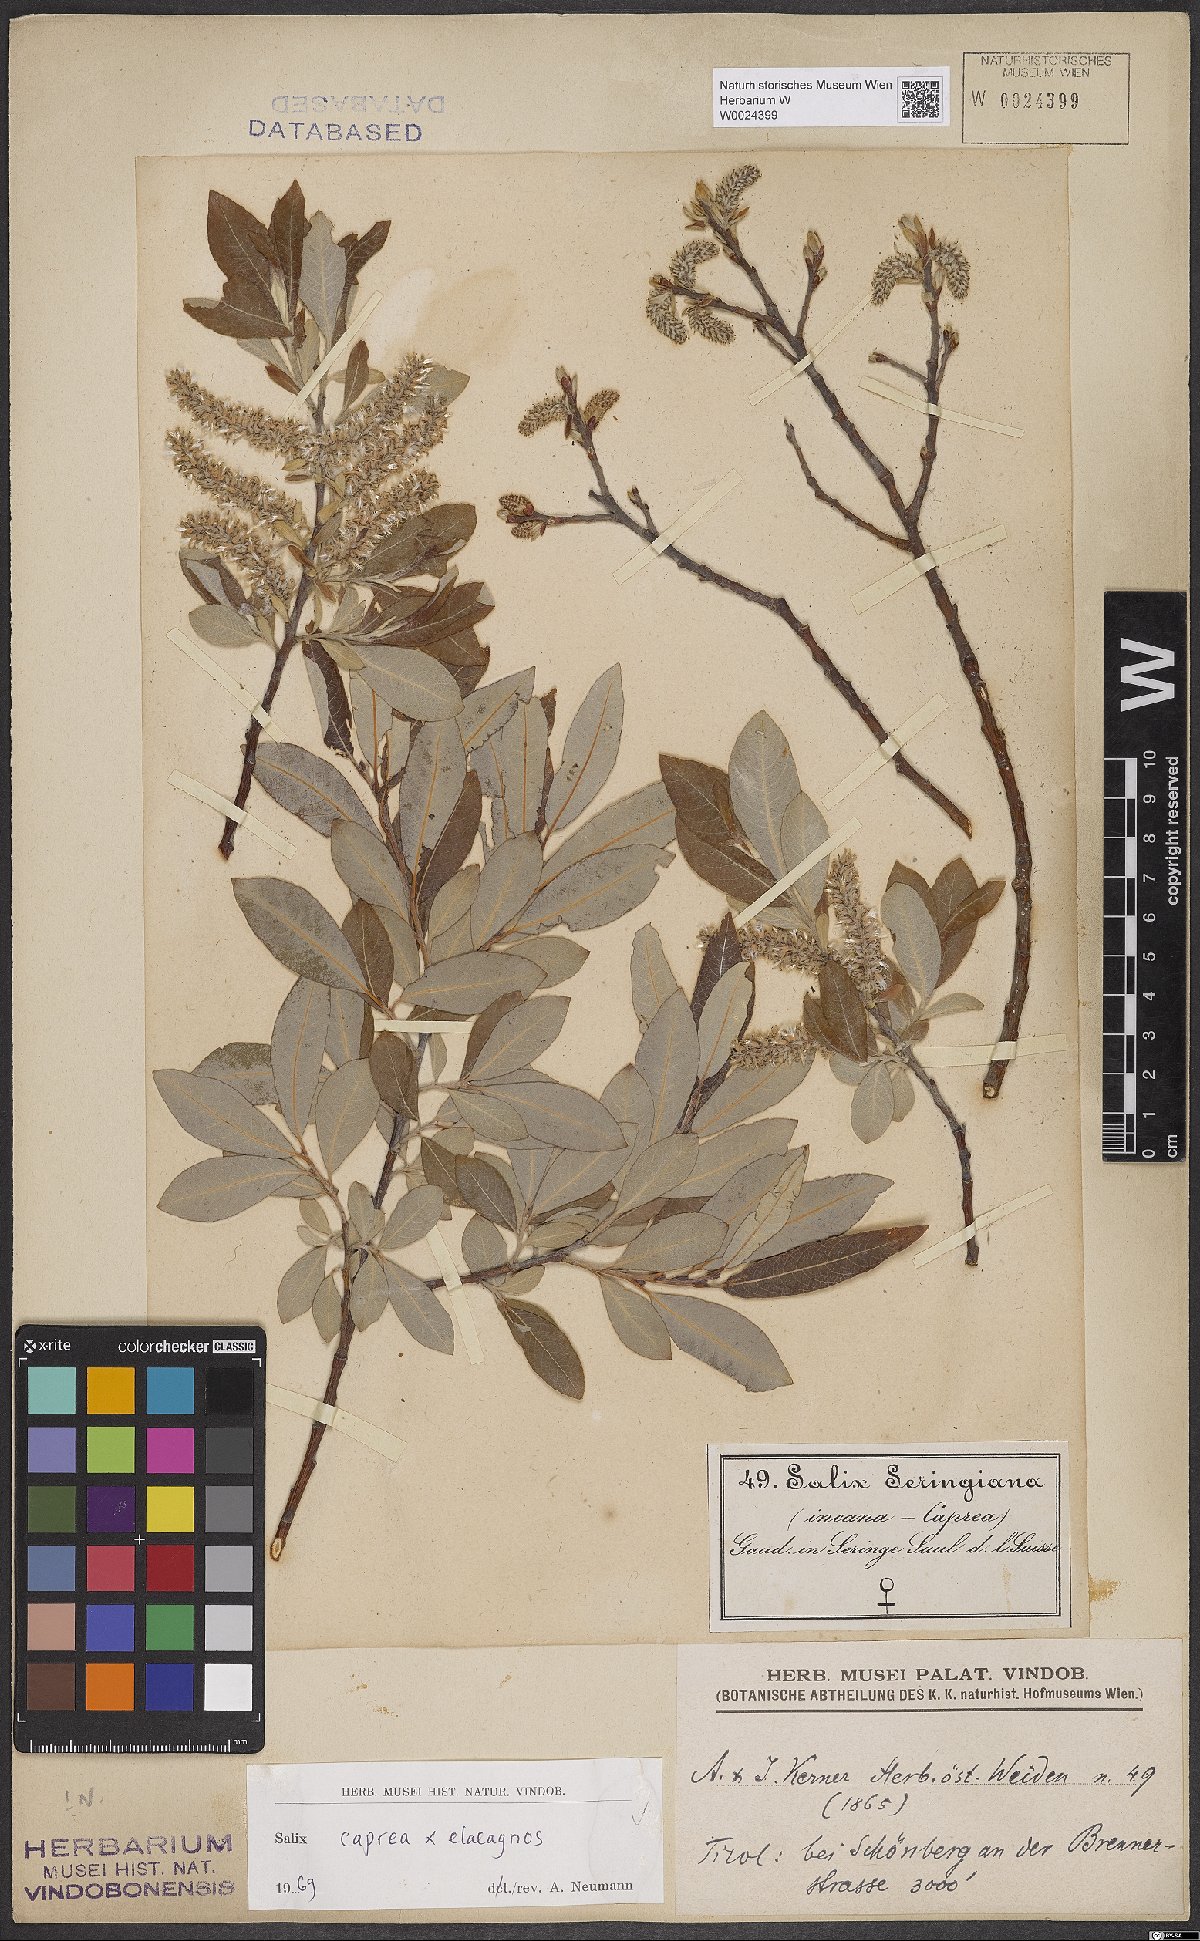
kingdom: Plantae
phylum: Tracheophyta
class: Magnoliopsida
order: Malpighiales
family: Salicaceae
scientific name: Salicaceae
